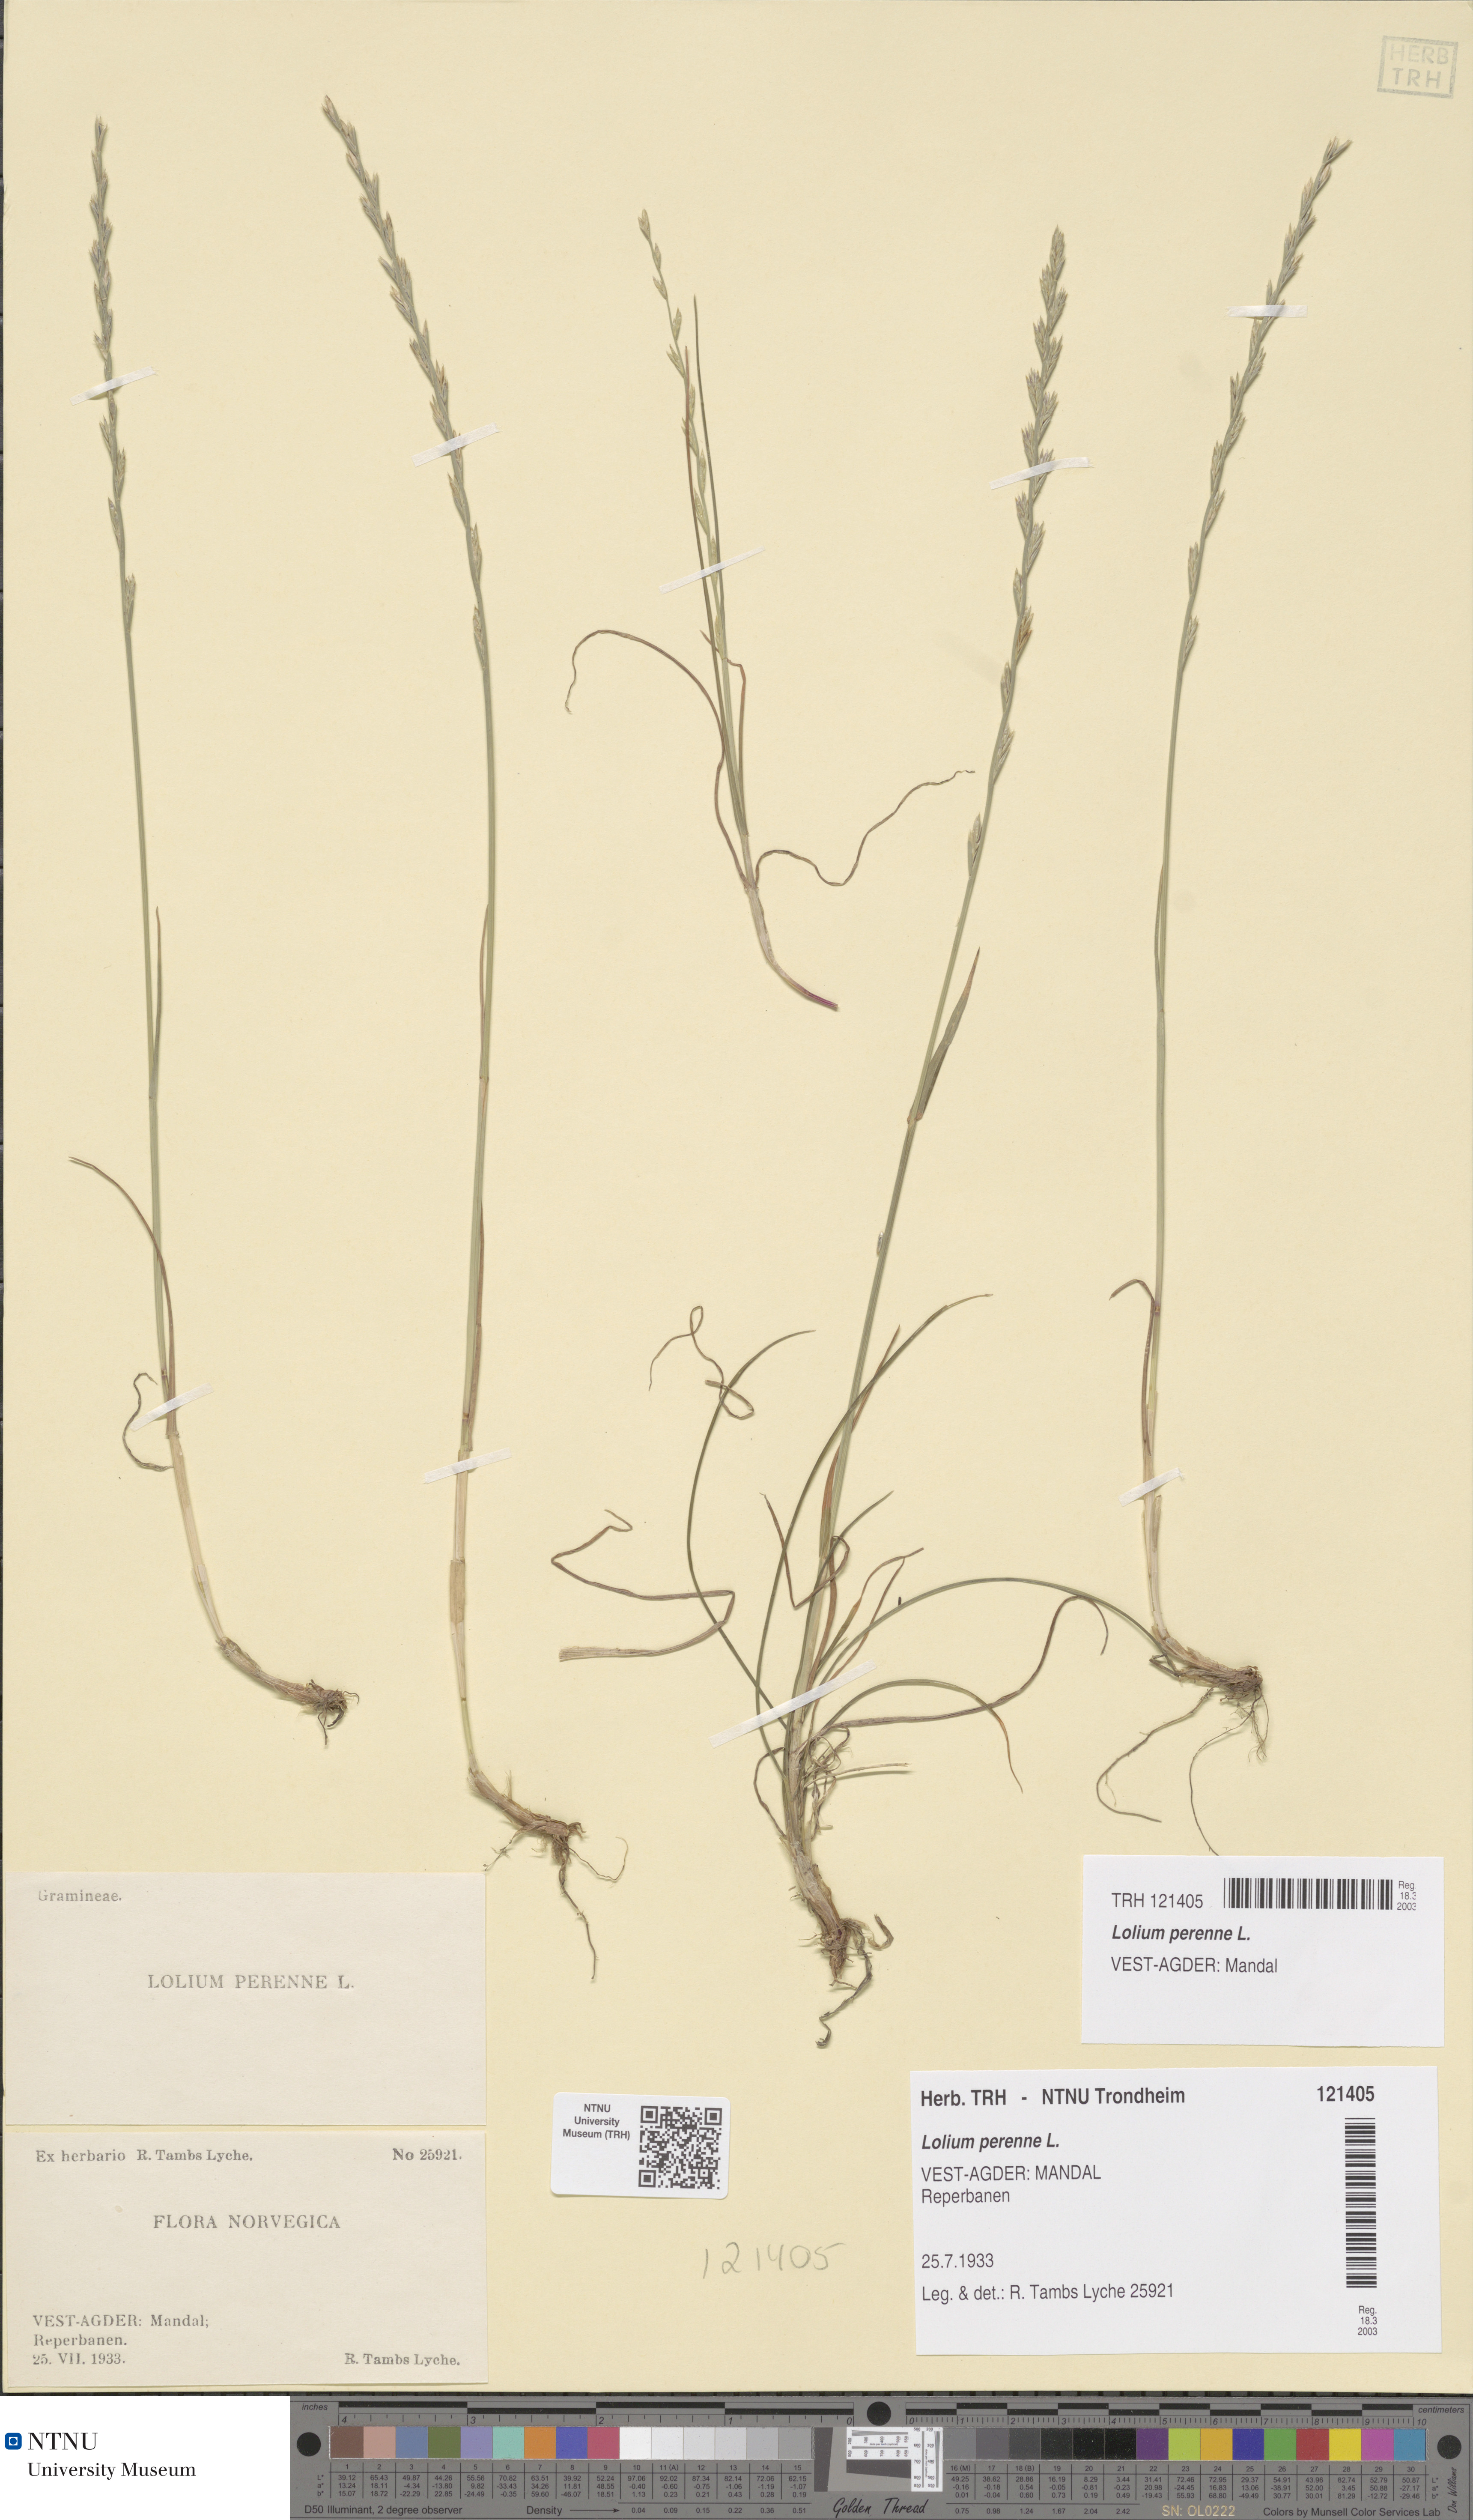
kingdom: Plantae
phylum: Tracheophyta
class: Liliopsida
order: Poales
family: Poaceae
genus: Lolium
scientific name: Lolium perenne
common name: Perennial ryegrass
